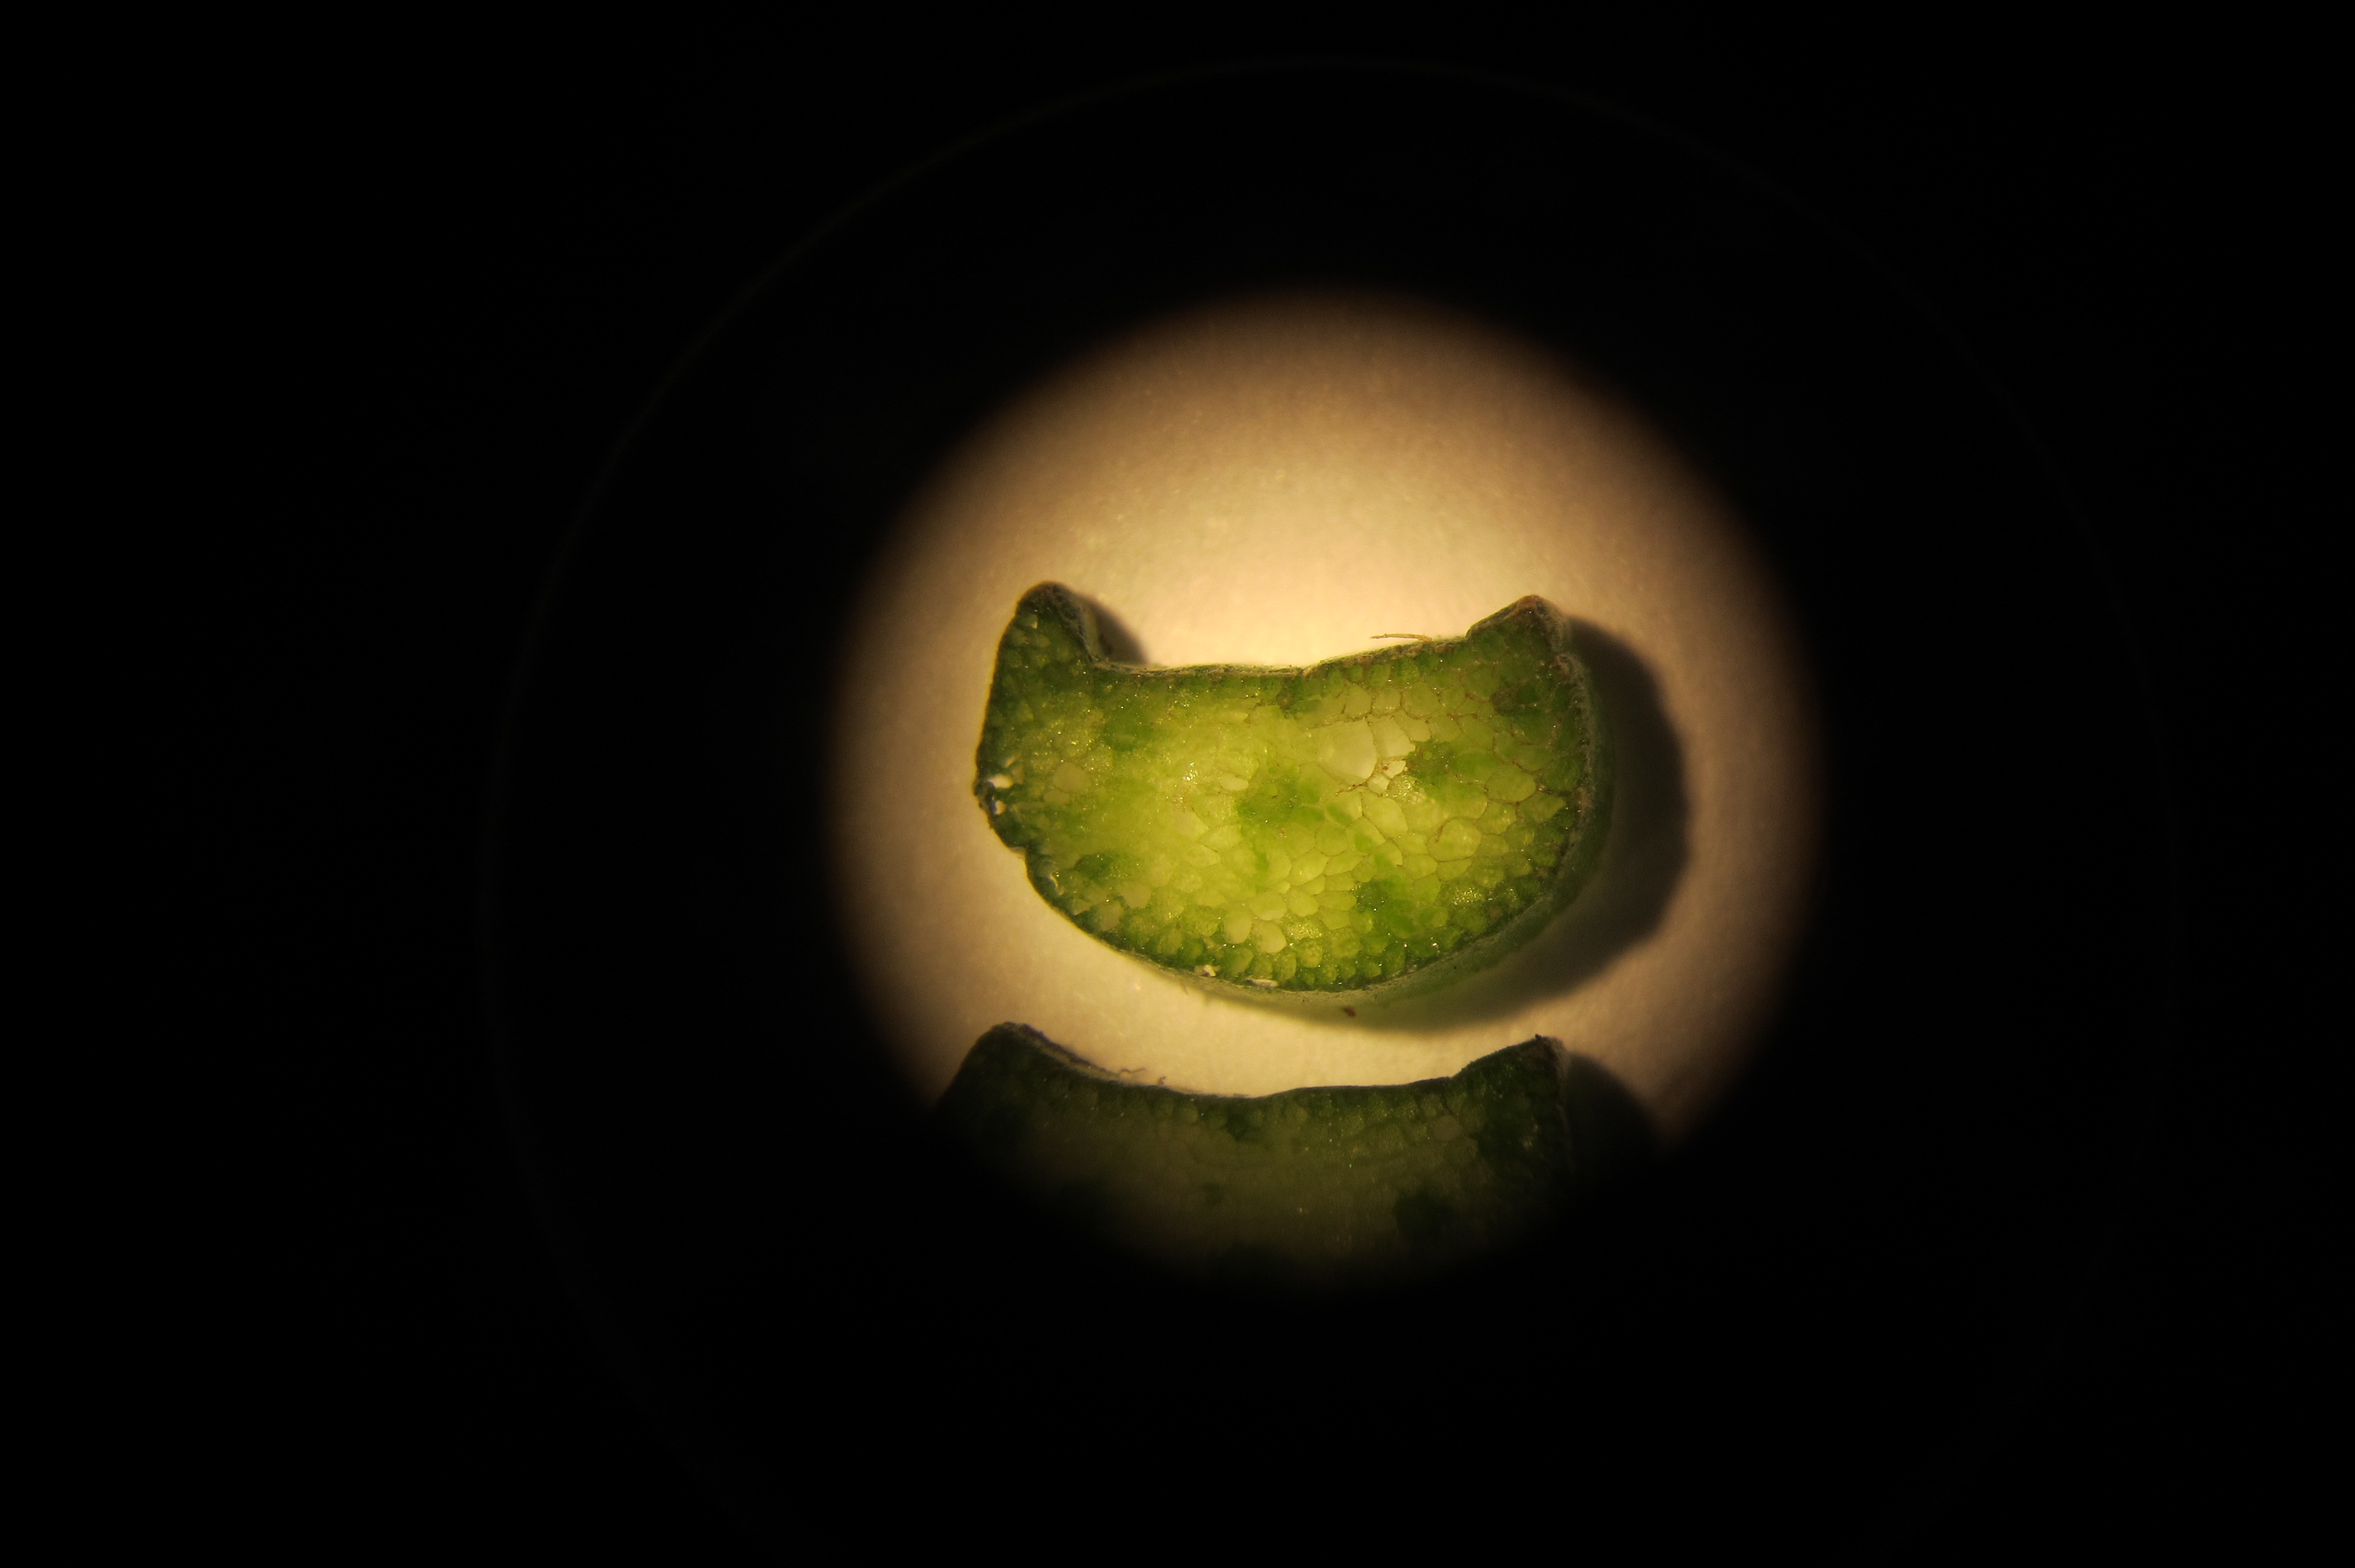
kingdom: Plantae
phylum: Tracheophyta
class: Liliopsida
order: Alismatales
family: Alismataceae
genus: Alisma
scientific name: Alisma plantago-aquatica
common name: Water-plantain
